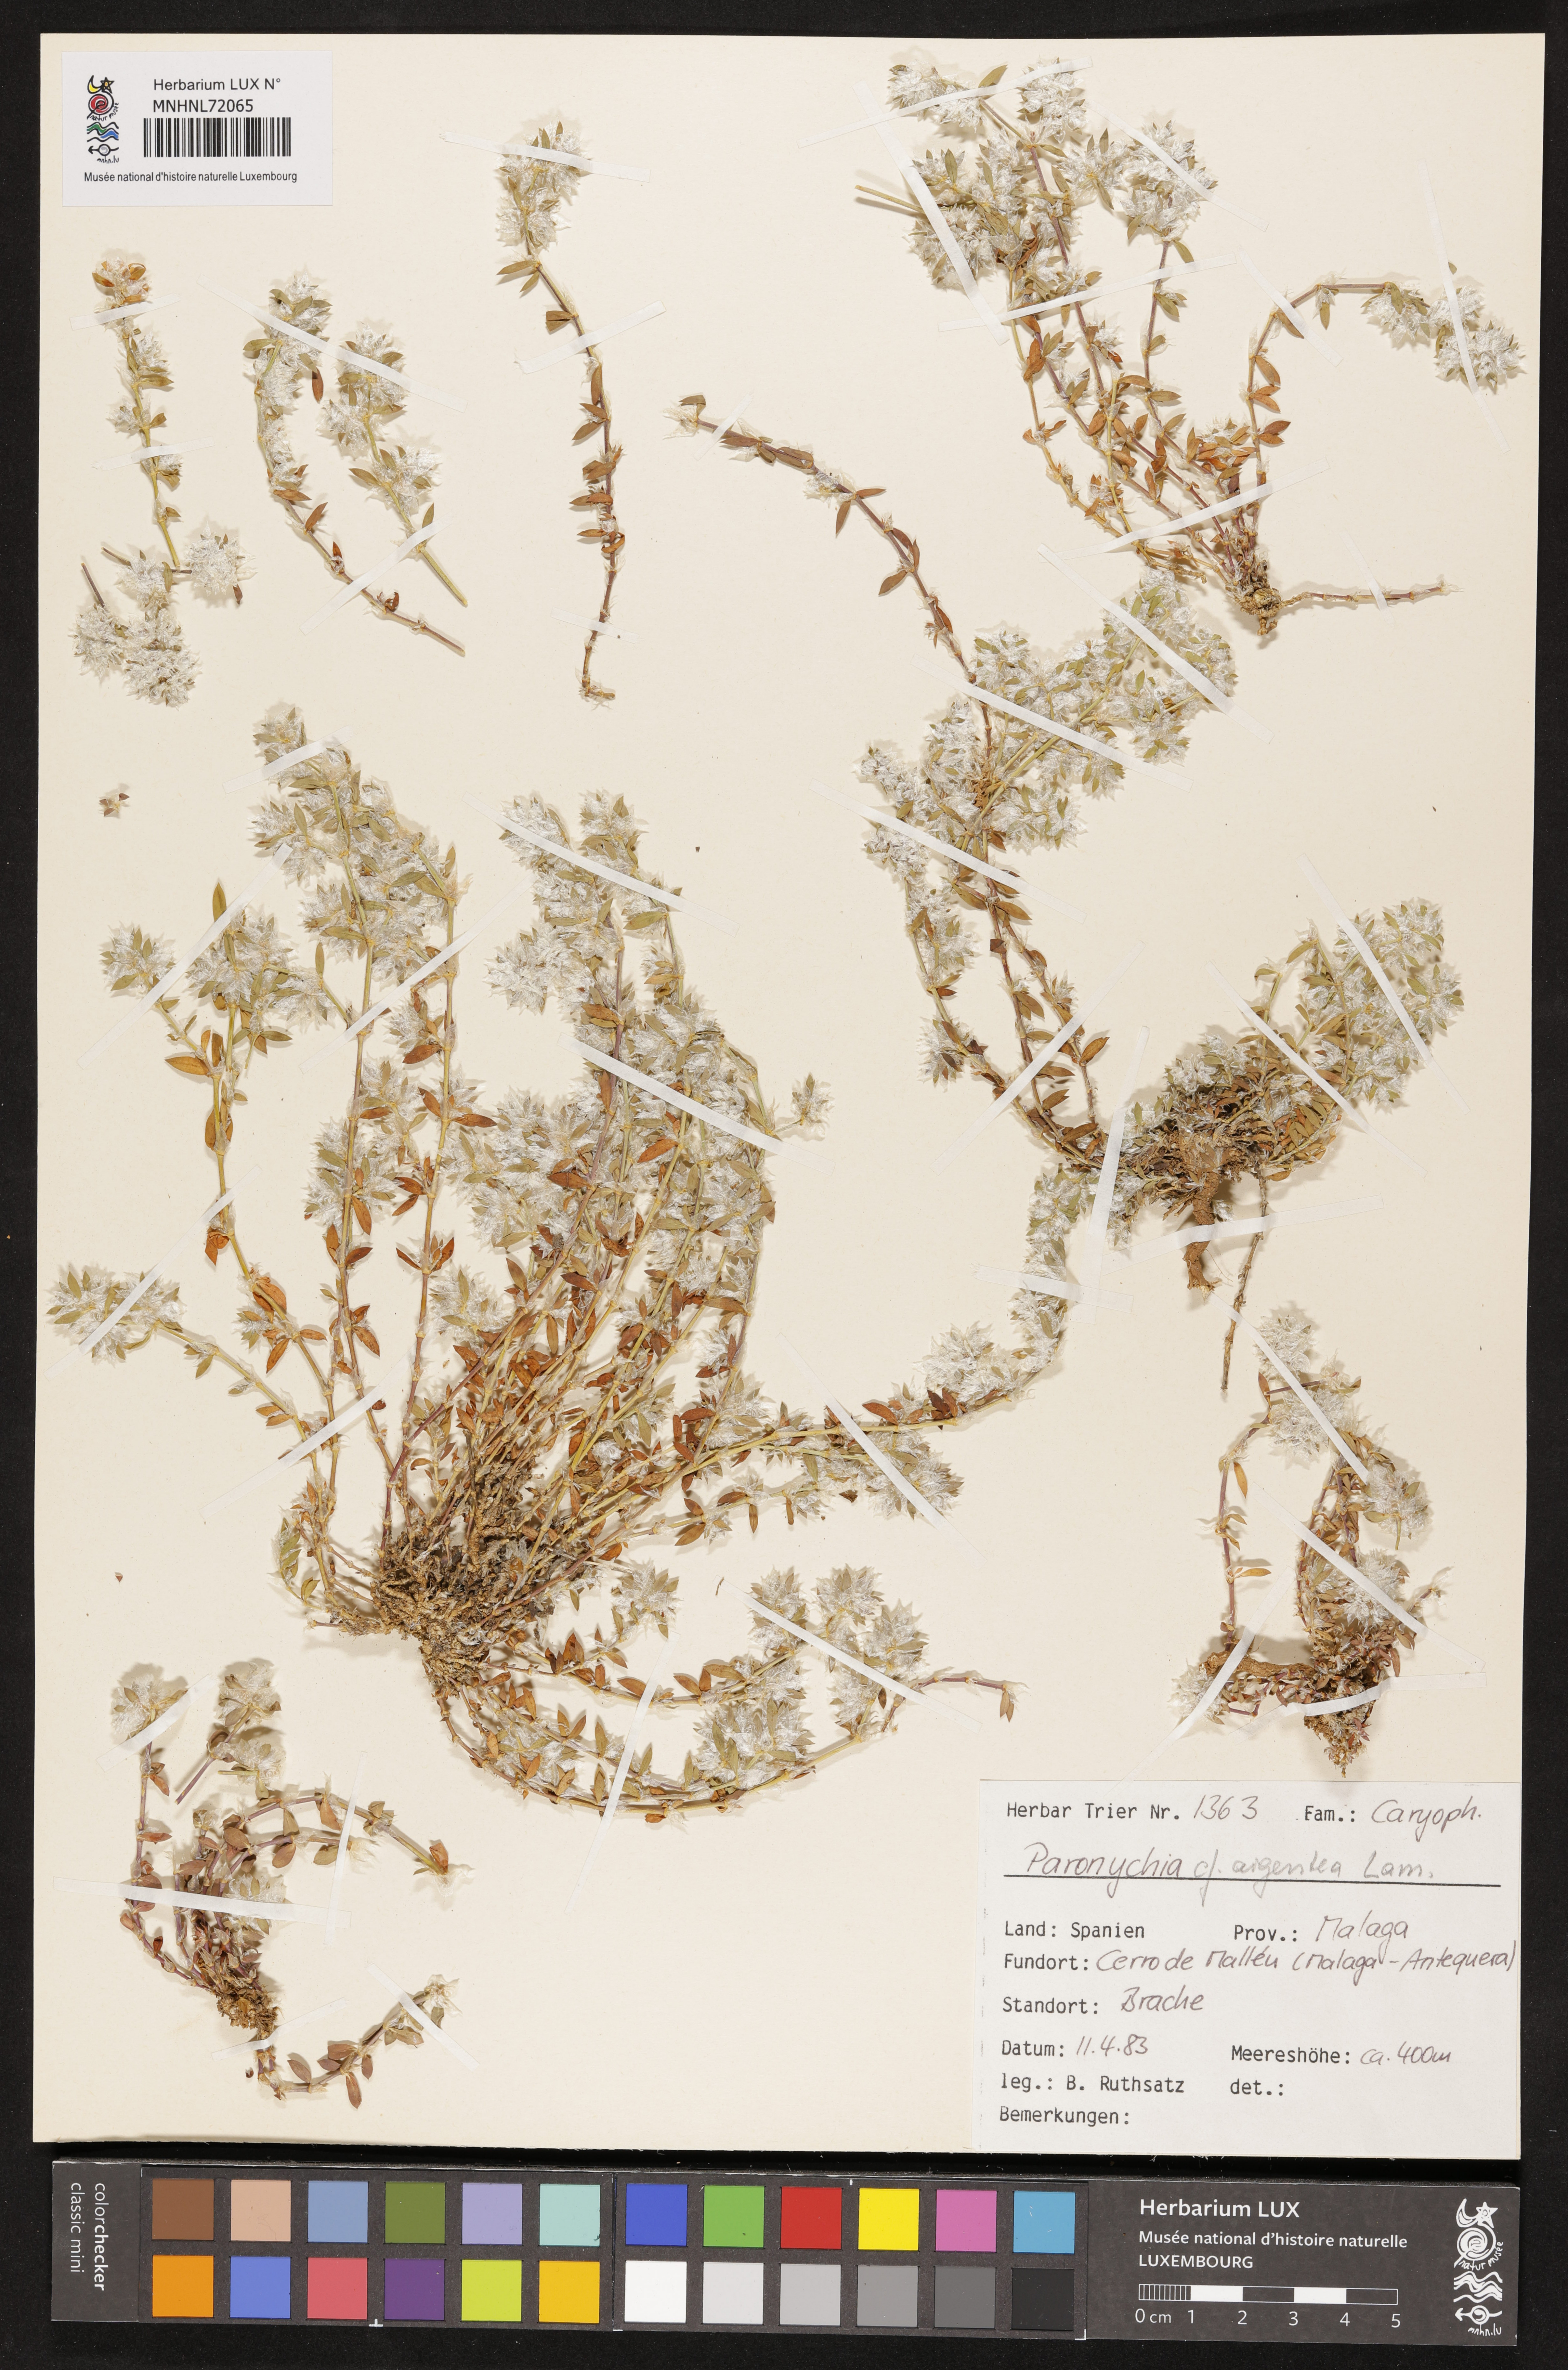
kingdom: Plantae
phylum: Tracheophyta
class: Magnoliopsida
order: Caryophyllales
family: Caryophyllaceae
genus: Paronychia
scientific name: Paronychia argentea
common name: Silver nailroot
